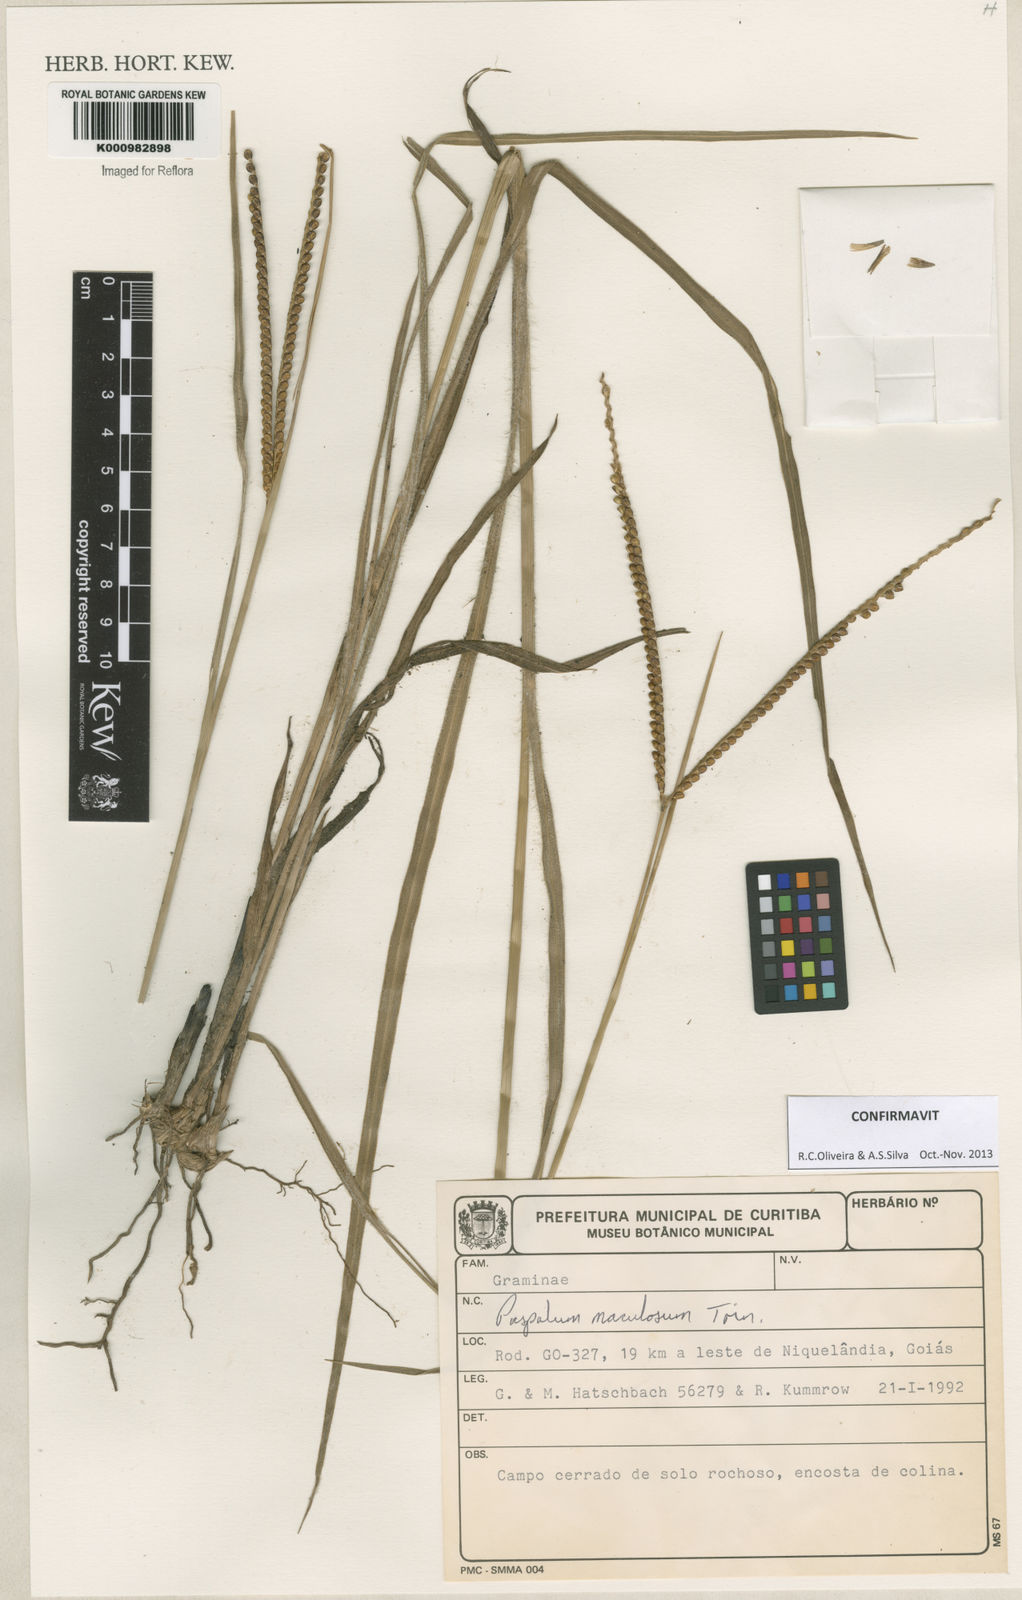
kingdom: Plantae
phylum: Tracheophyta
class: Liliopsida
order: Poales
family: Poaceae
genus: Paspalum
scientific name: Paspalum maculosum
